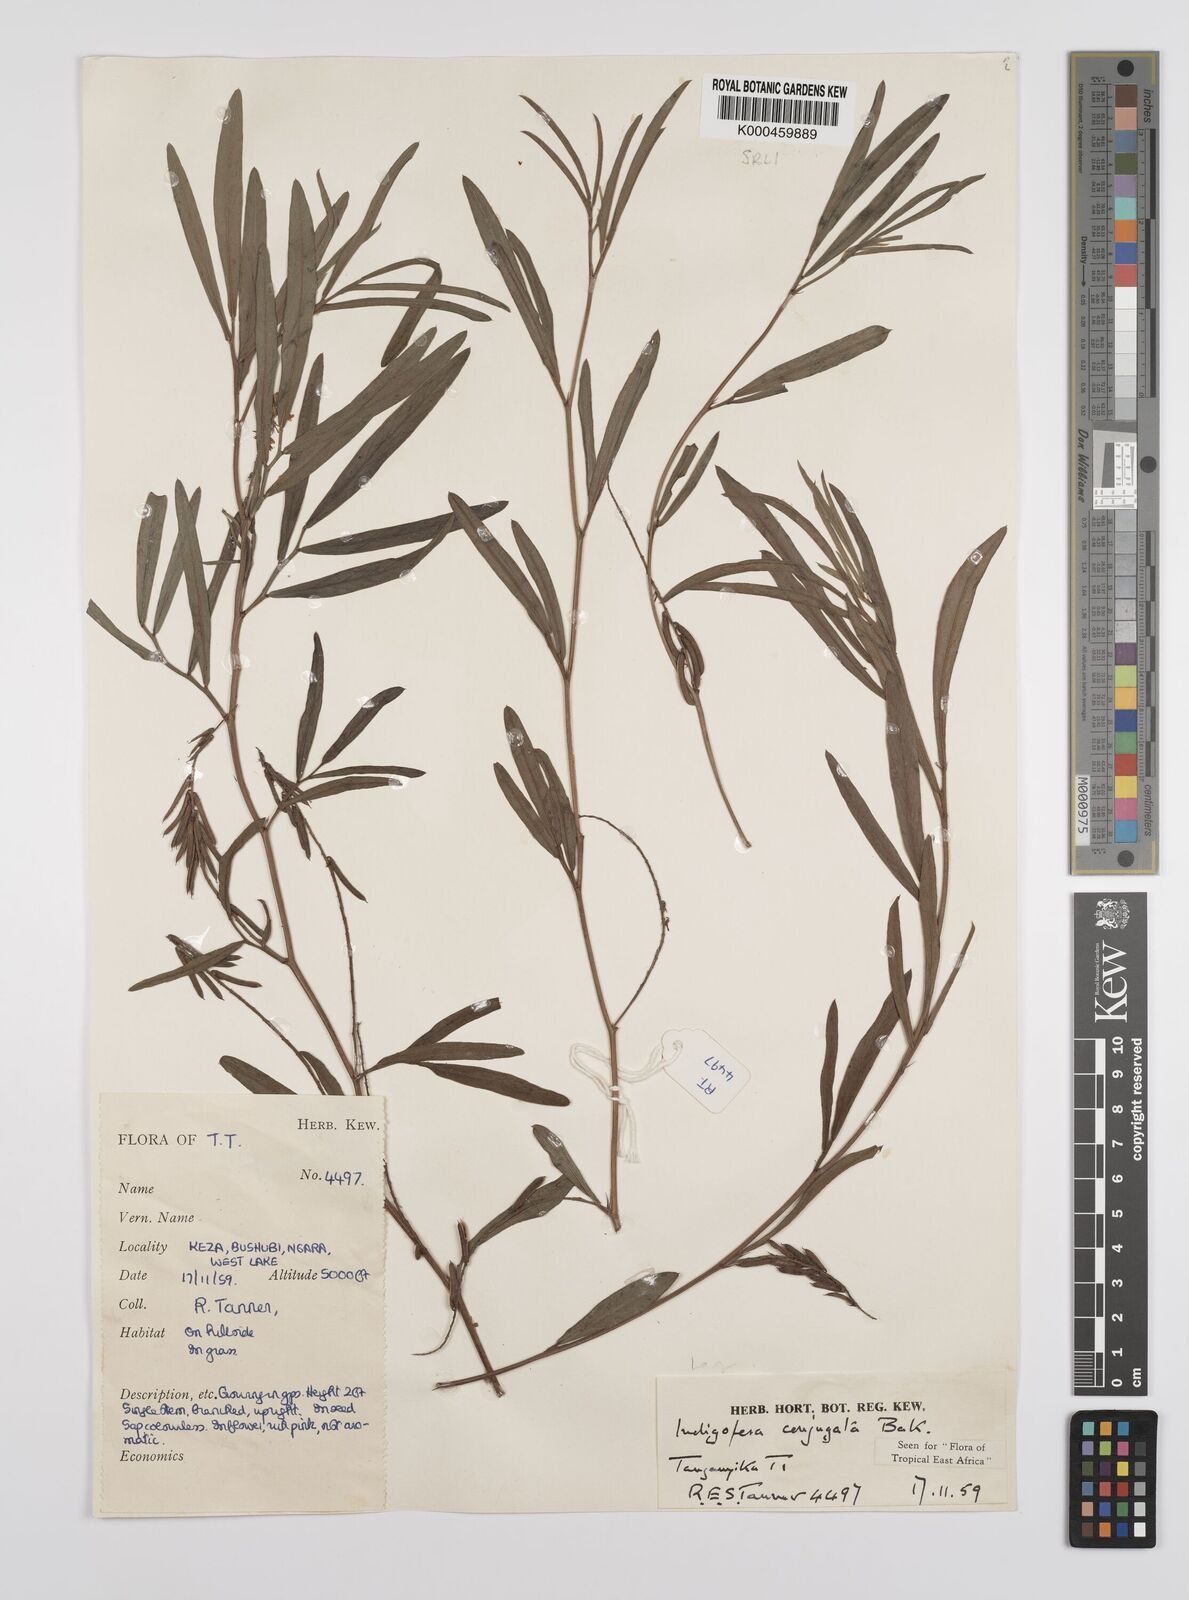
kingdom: Plantae
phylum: Tracheophyta
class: Magnoliopsida
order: Fabales
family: Fabaceae
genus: Indigofera
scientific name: Indigofera conjugata
